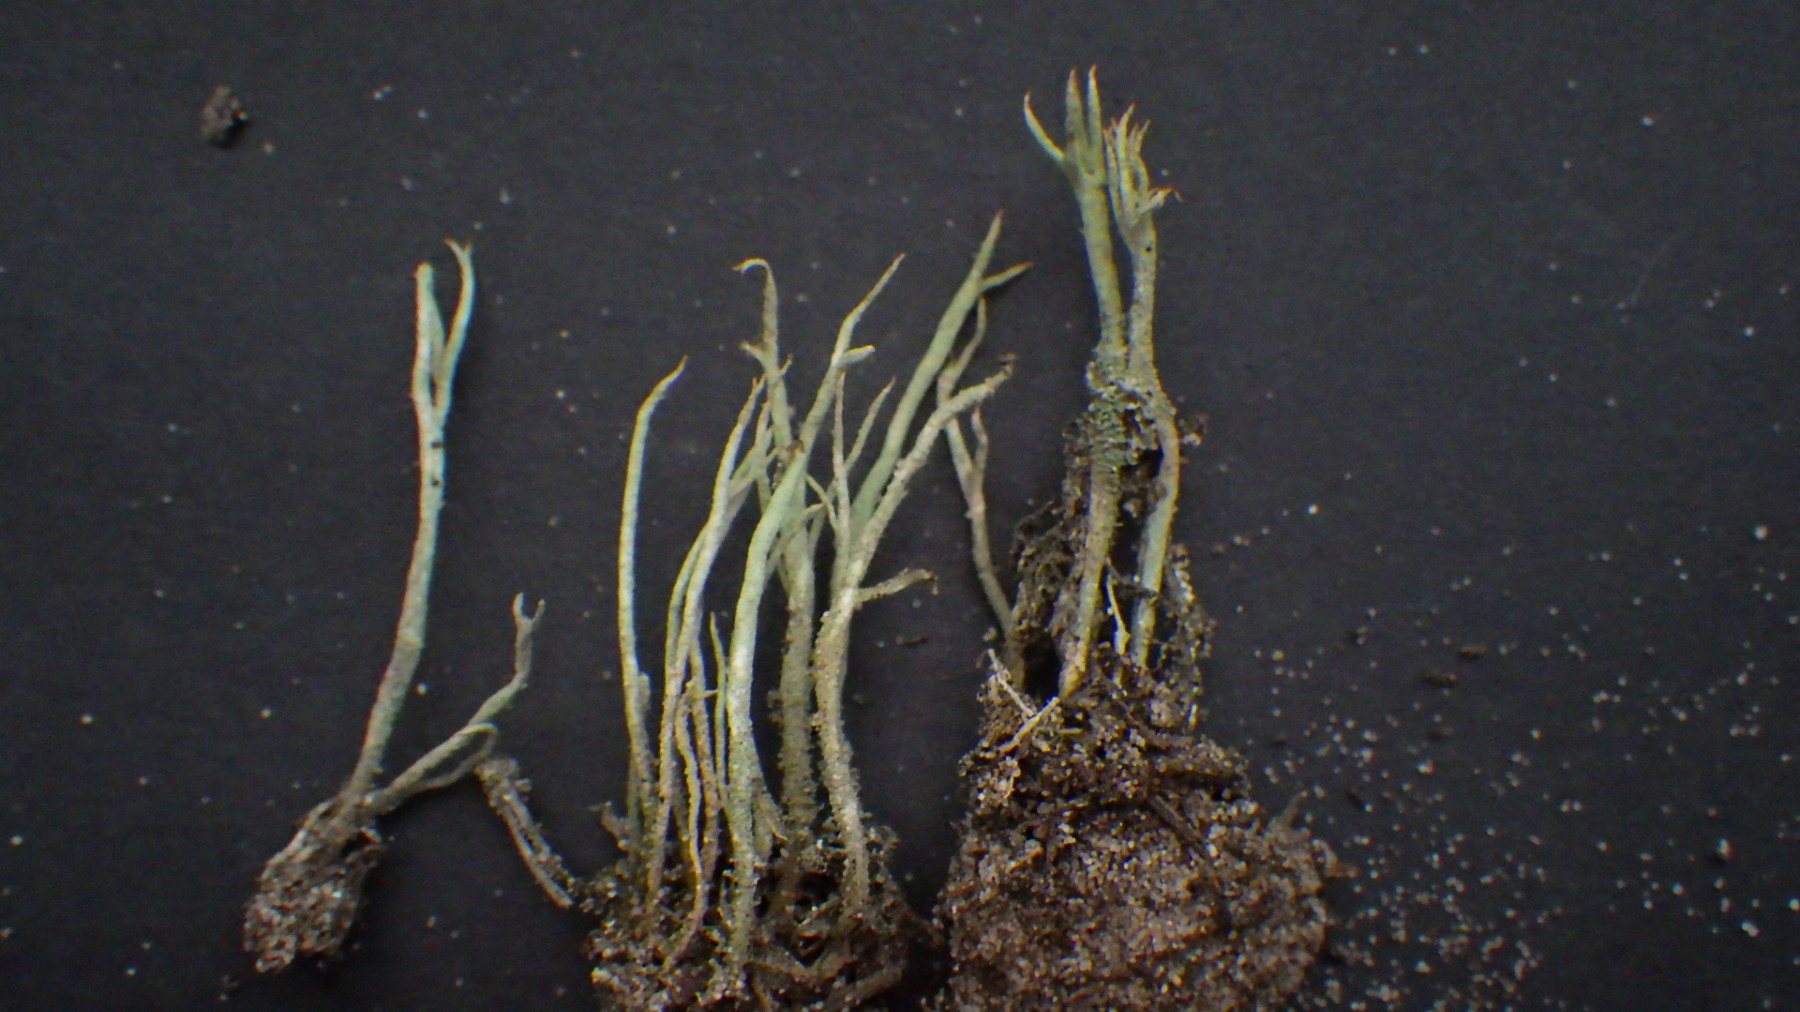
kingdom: Fungi
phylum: Ascomycota
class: Lecanoromycetes
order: Lecanorales
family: Cladoniaceae
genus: Cladonia
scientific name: Cladonia glauca
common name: grågrøn bægerlav
